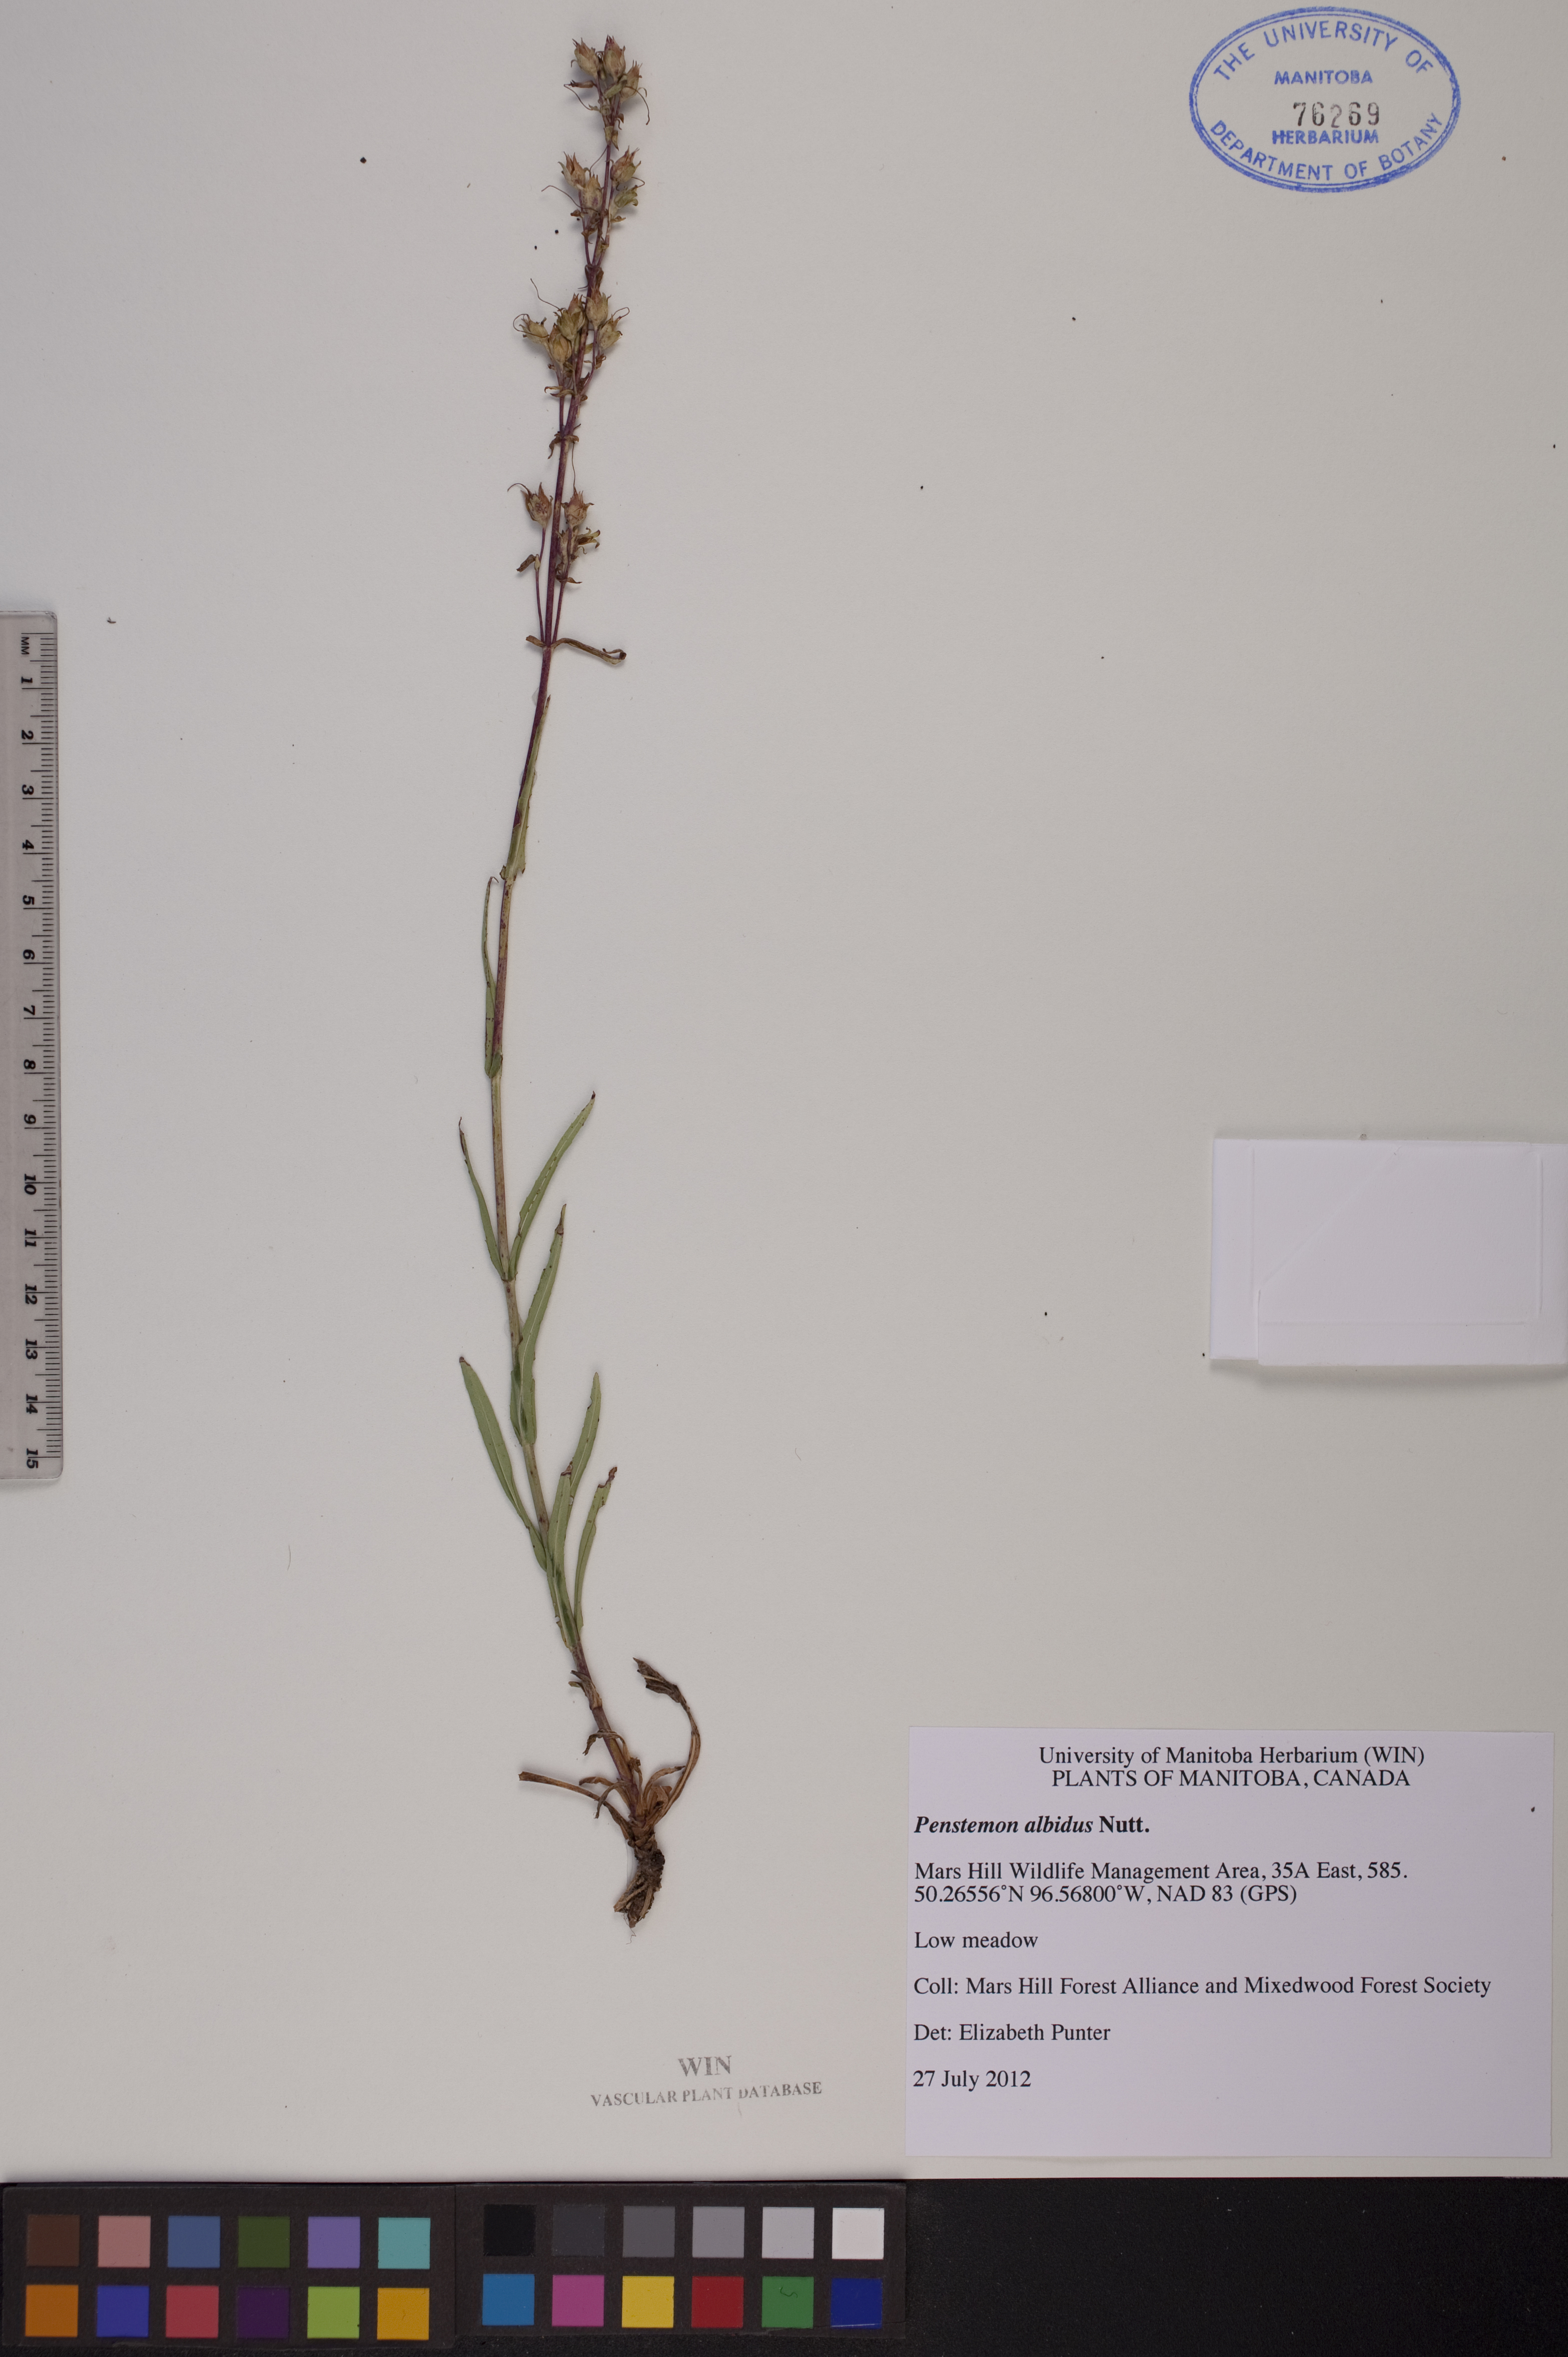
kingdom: Plantae
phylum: Tracheophyta
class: Magnoliopsida
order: Lamiales
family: Plantaginaceae
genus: Penstemon
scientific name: Penstemon albidus
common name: White beardtongue
